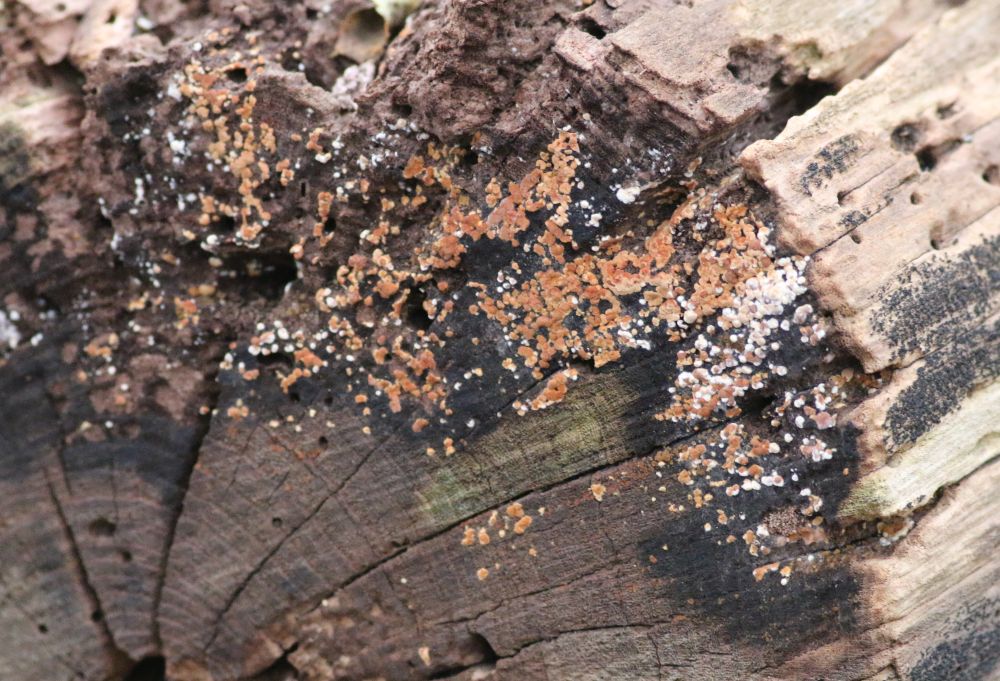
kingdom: Fungi
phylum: Basidiomycota
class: Agaricomycetes
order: Cantharellales
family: Botryobasidiaceae
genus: Botryobasidium
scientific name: Botryobasidium aureum
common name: gylden spindhinde
